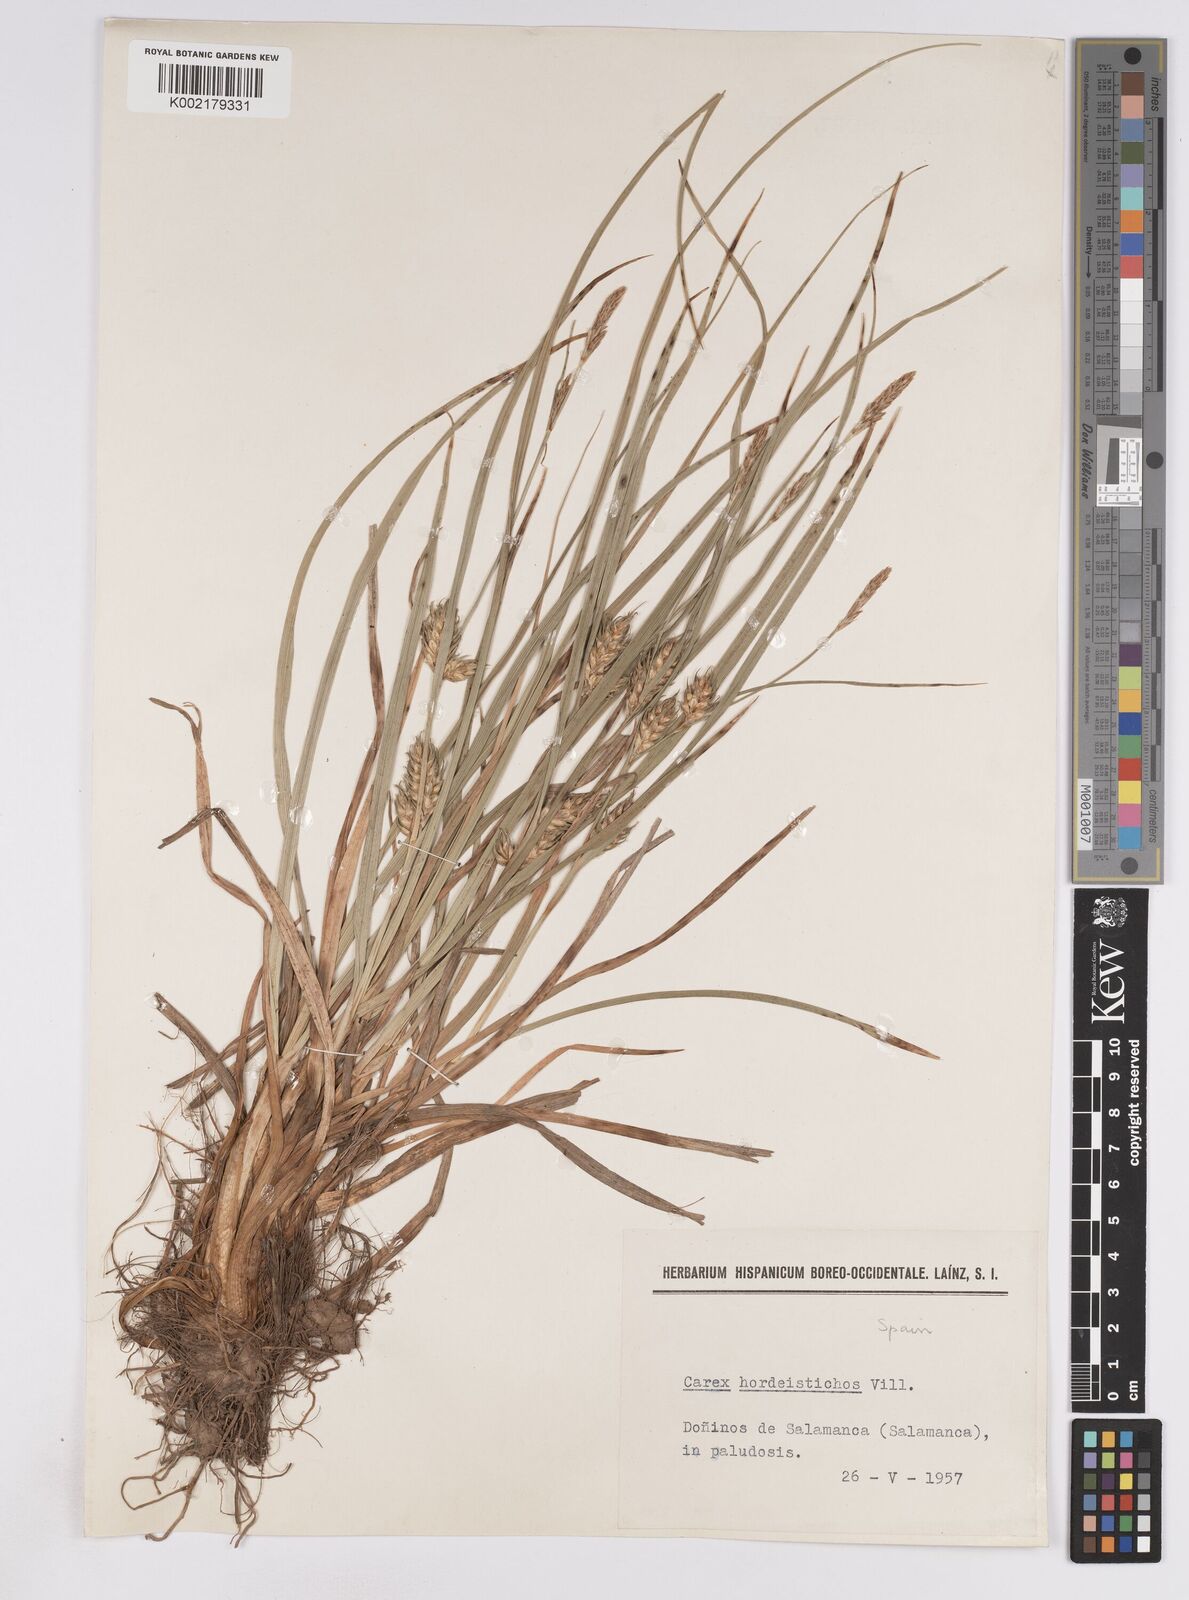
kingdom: Plantae
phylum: Tracheophyta
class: Liliopsida
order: Poales
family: Cyperaceae
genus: Carex
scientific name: Carex hordeistichos
